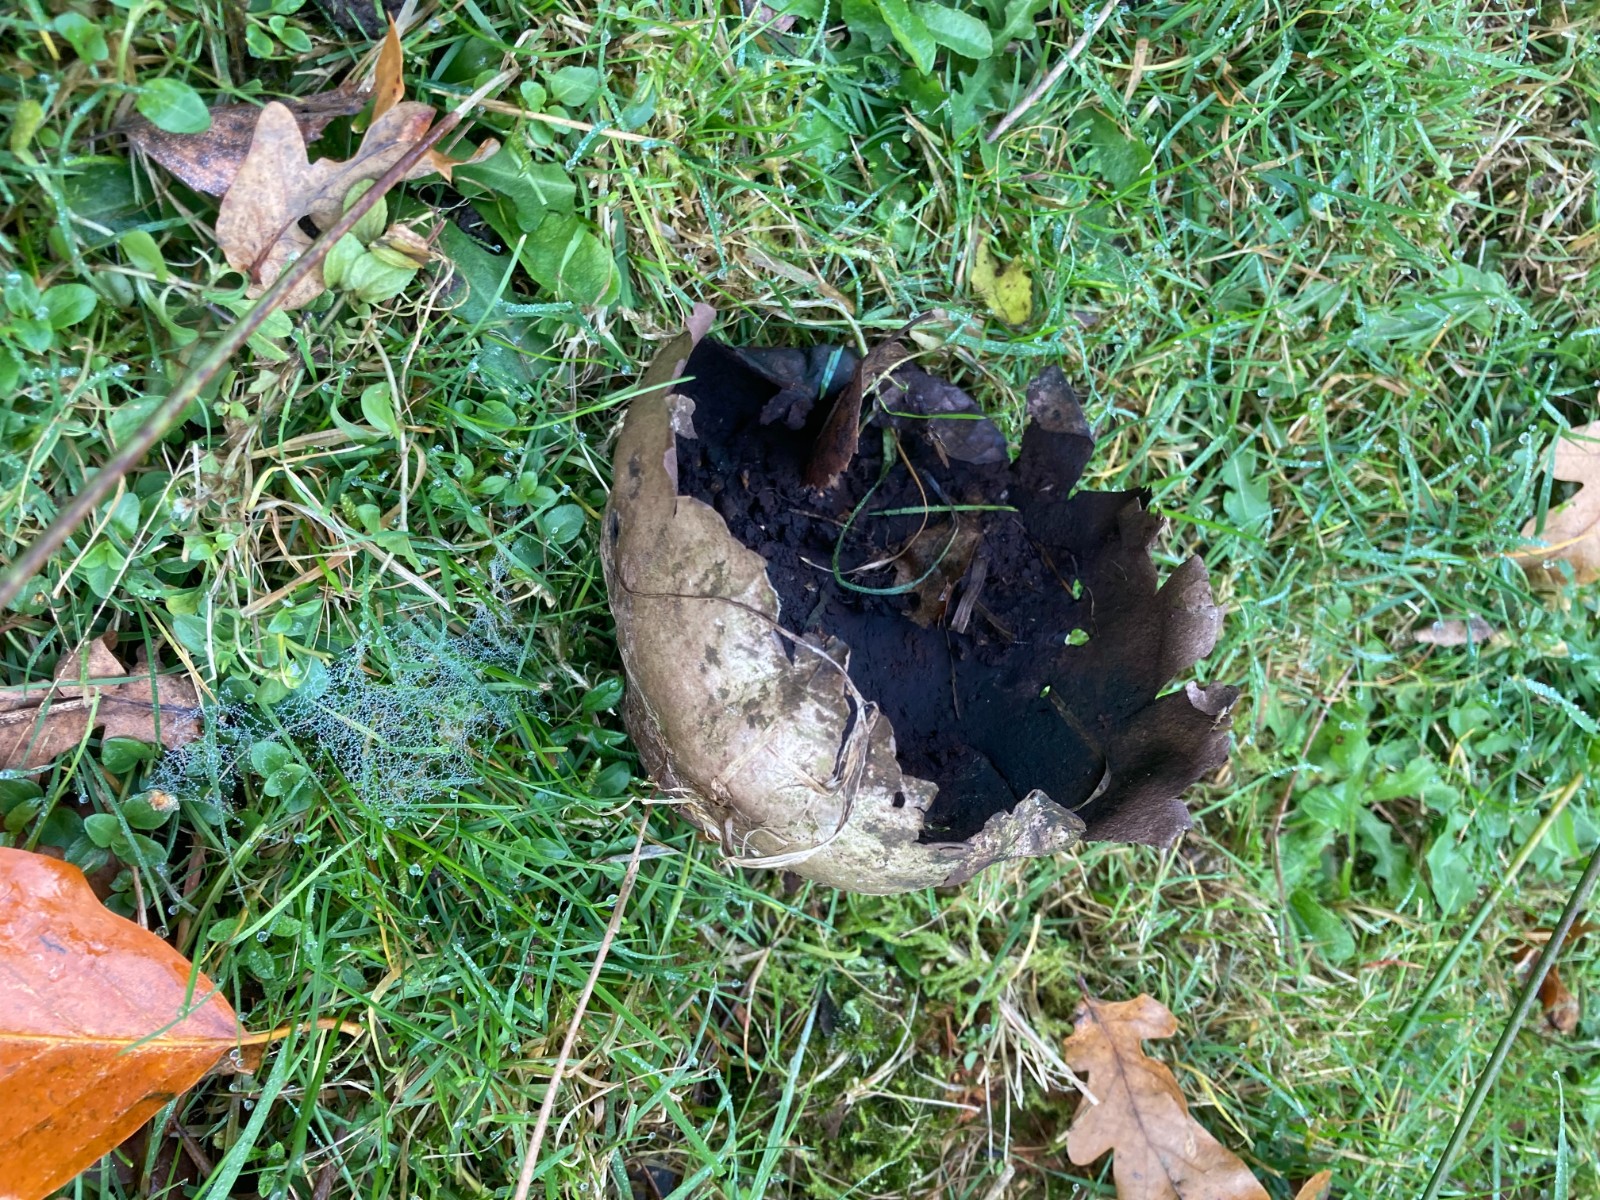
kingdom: Fungi
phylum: Basidiomycota
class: Agaricomycetes
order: Agaricales
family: Lycoperdaceae
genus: Bovistella
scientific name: Bovistella utriformis
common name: skællet støvbold
